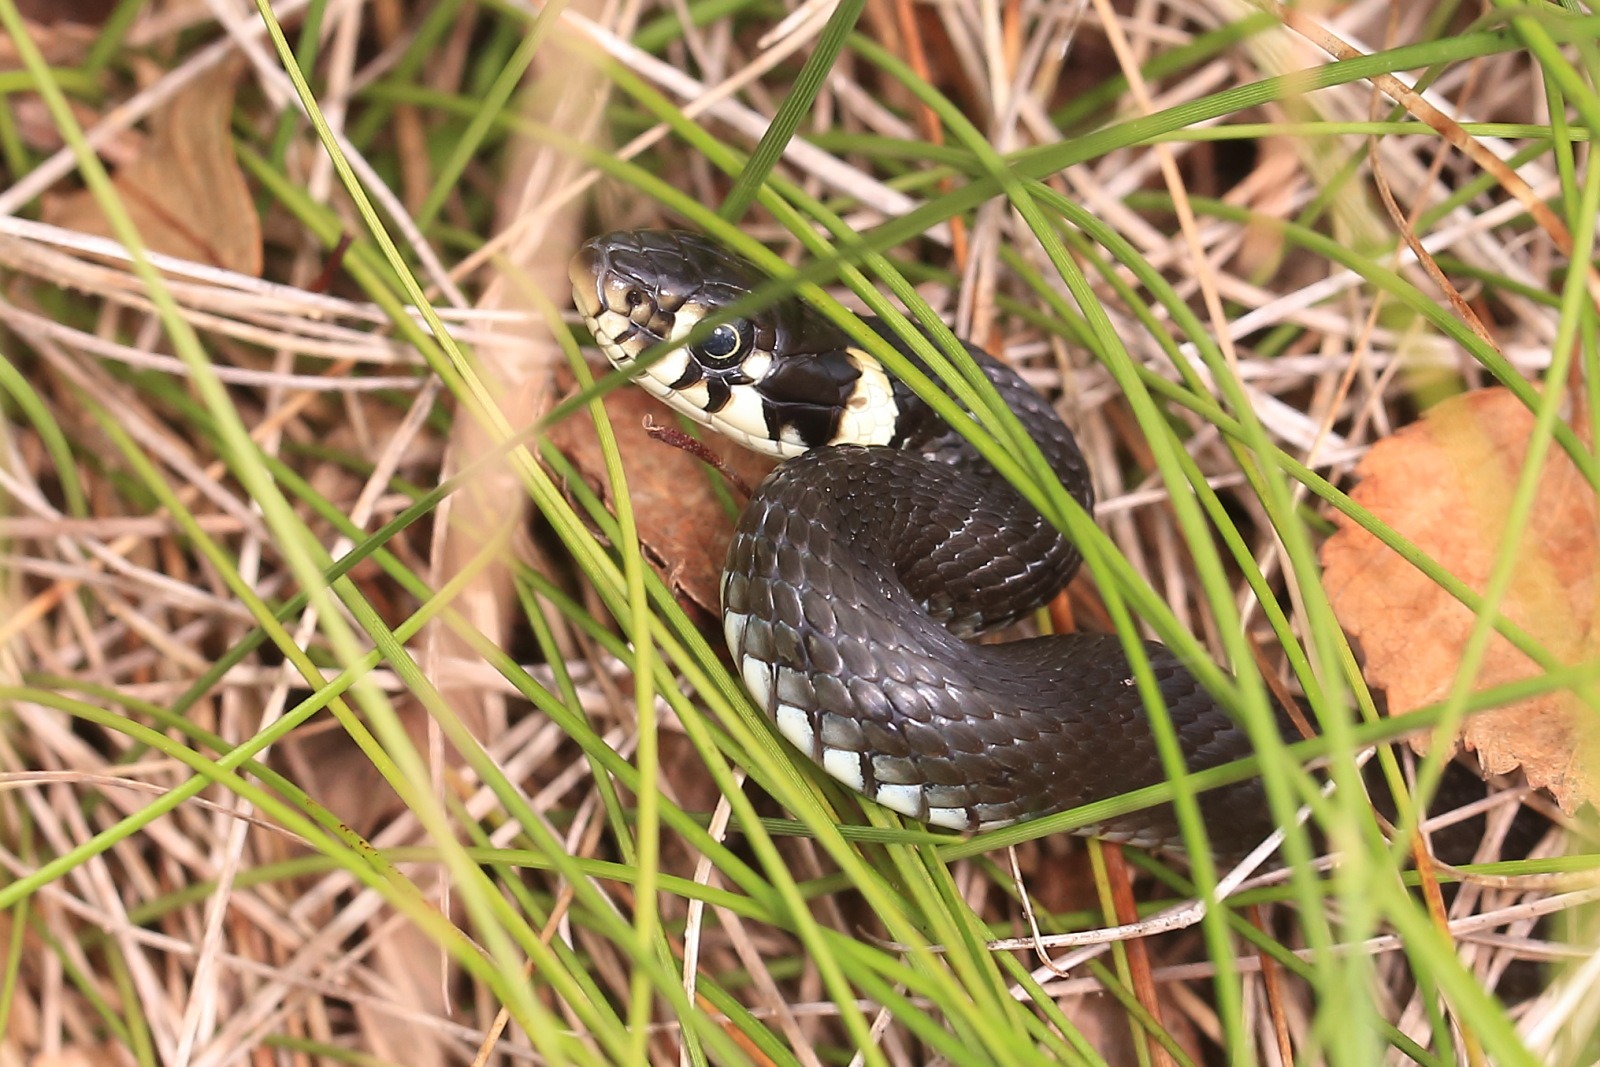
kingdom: Animalia
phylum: Chordata
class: Squamata
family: Colubridae
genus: Natrix
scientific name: Natrix natrix
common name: Snog
